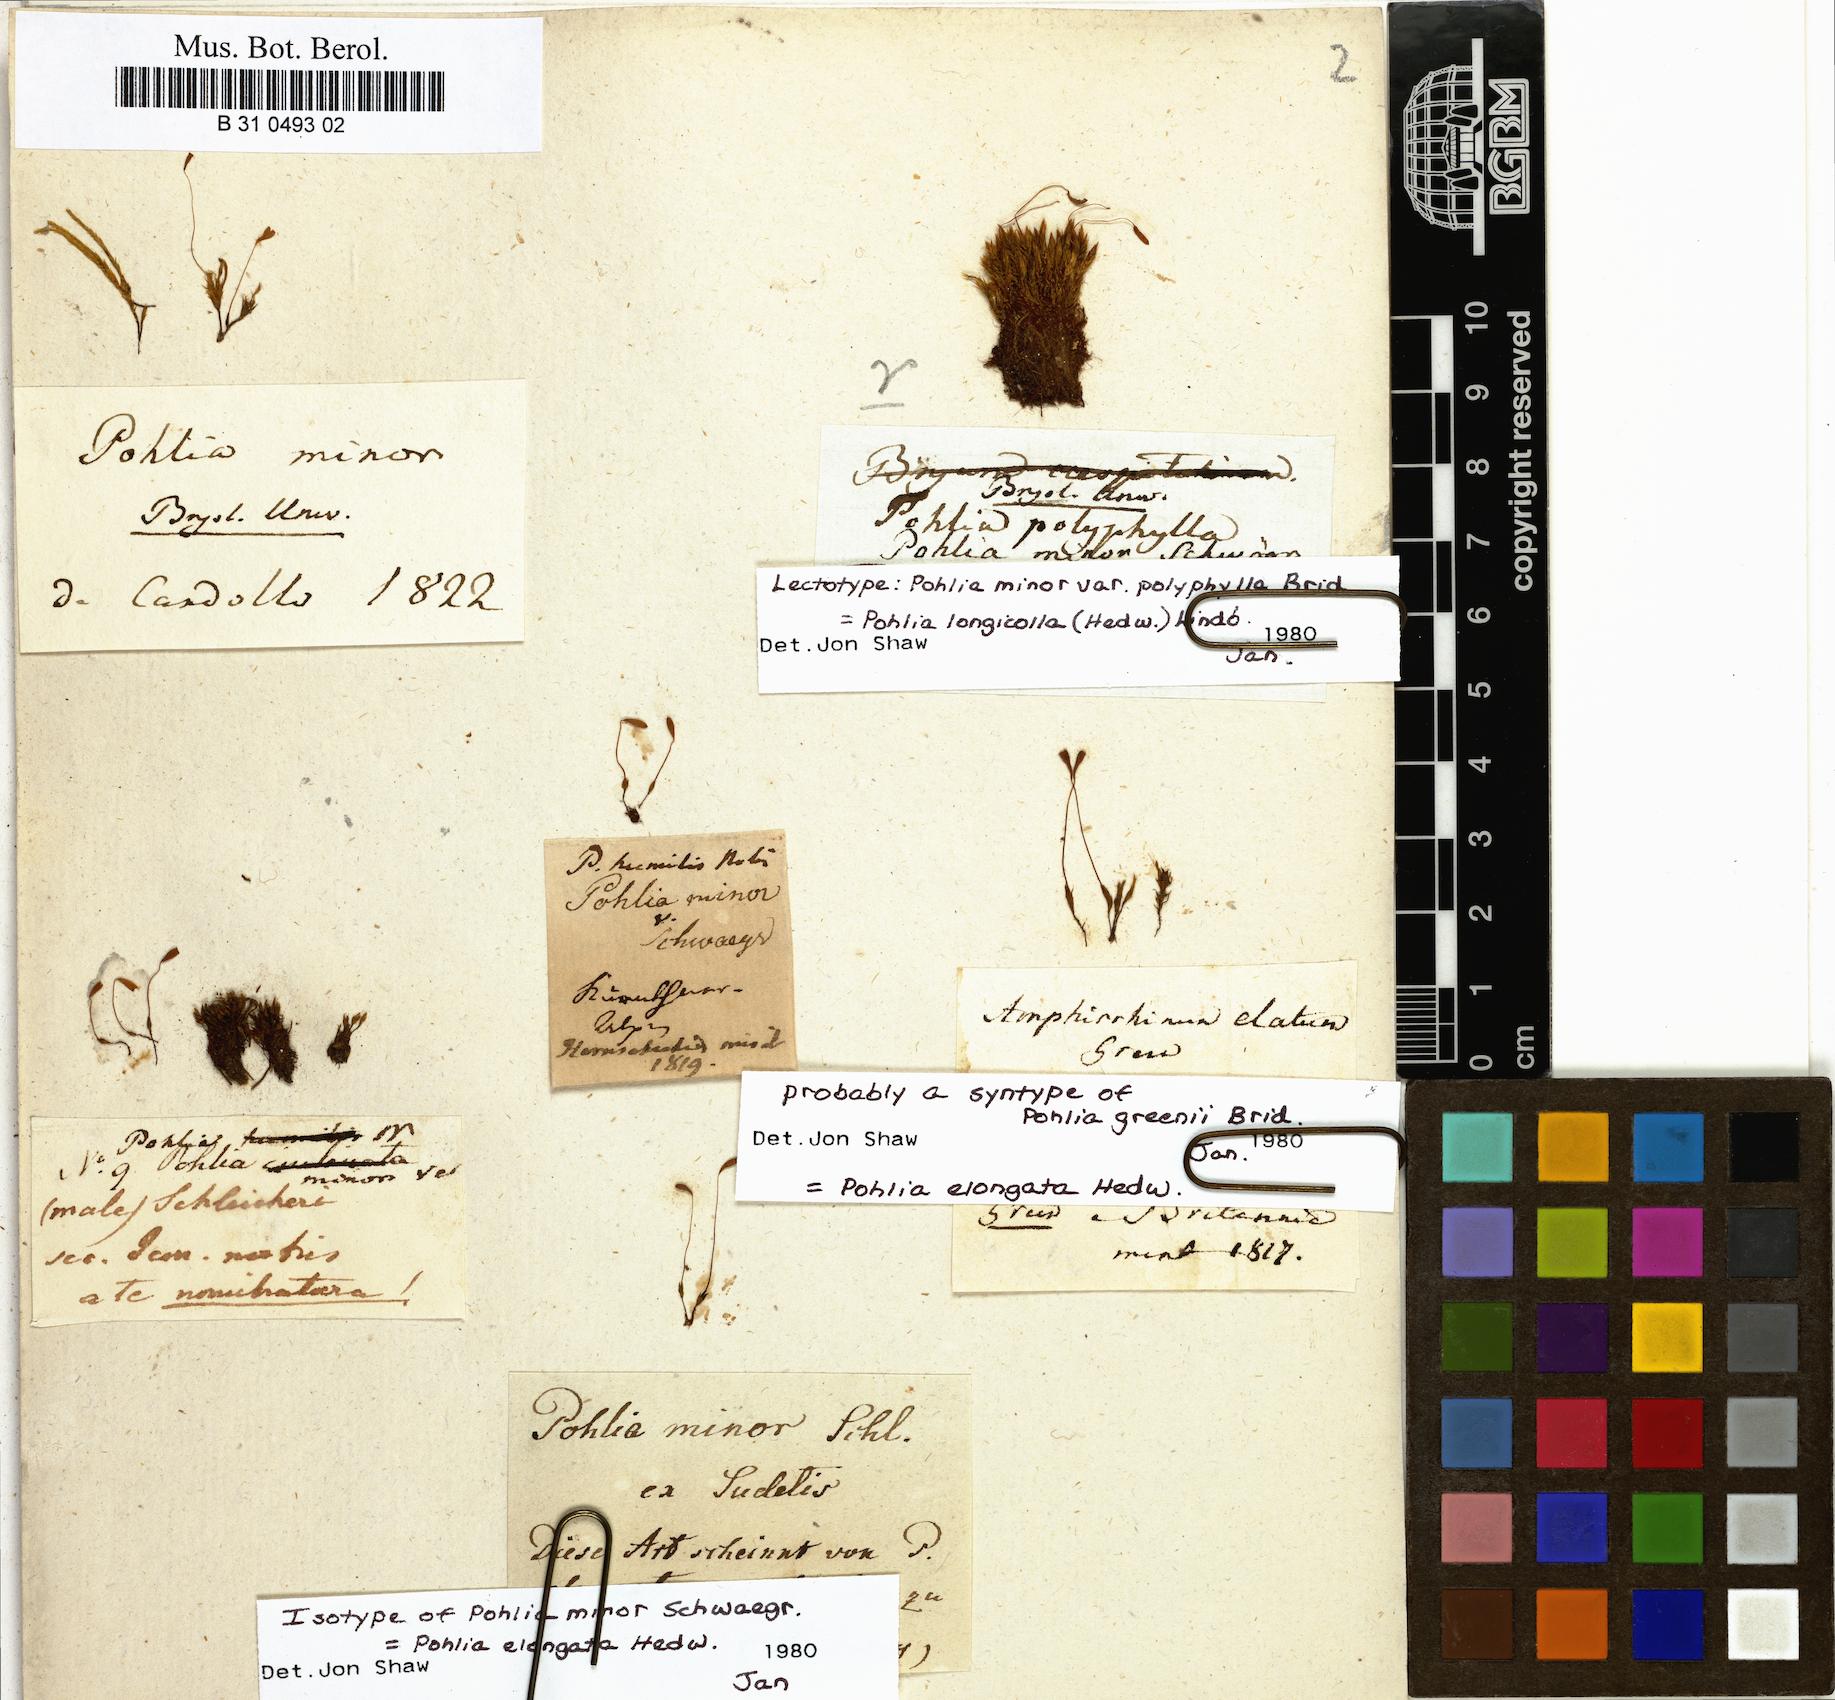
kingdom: Plantae
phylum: Bryophyta
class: Bryopsida
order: Bryales
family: Mniaceae
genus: Pohlia
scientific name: Pohlia elongata
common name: Long-fruited thread-moss
